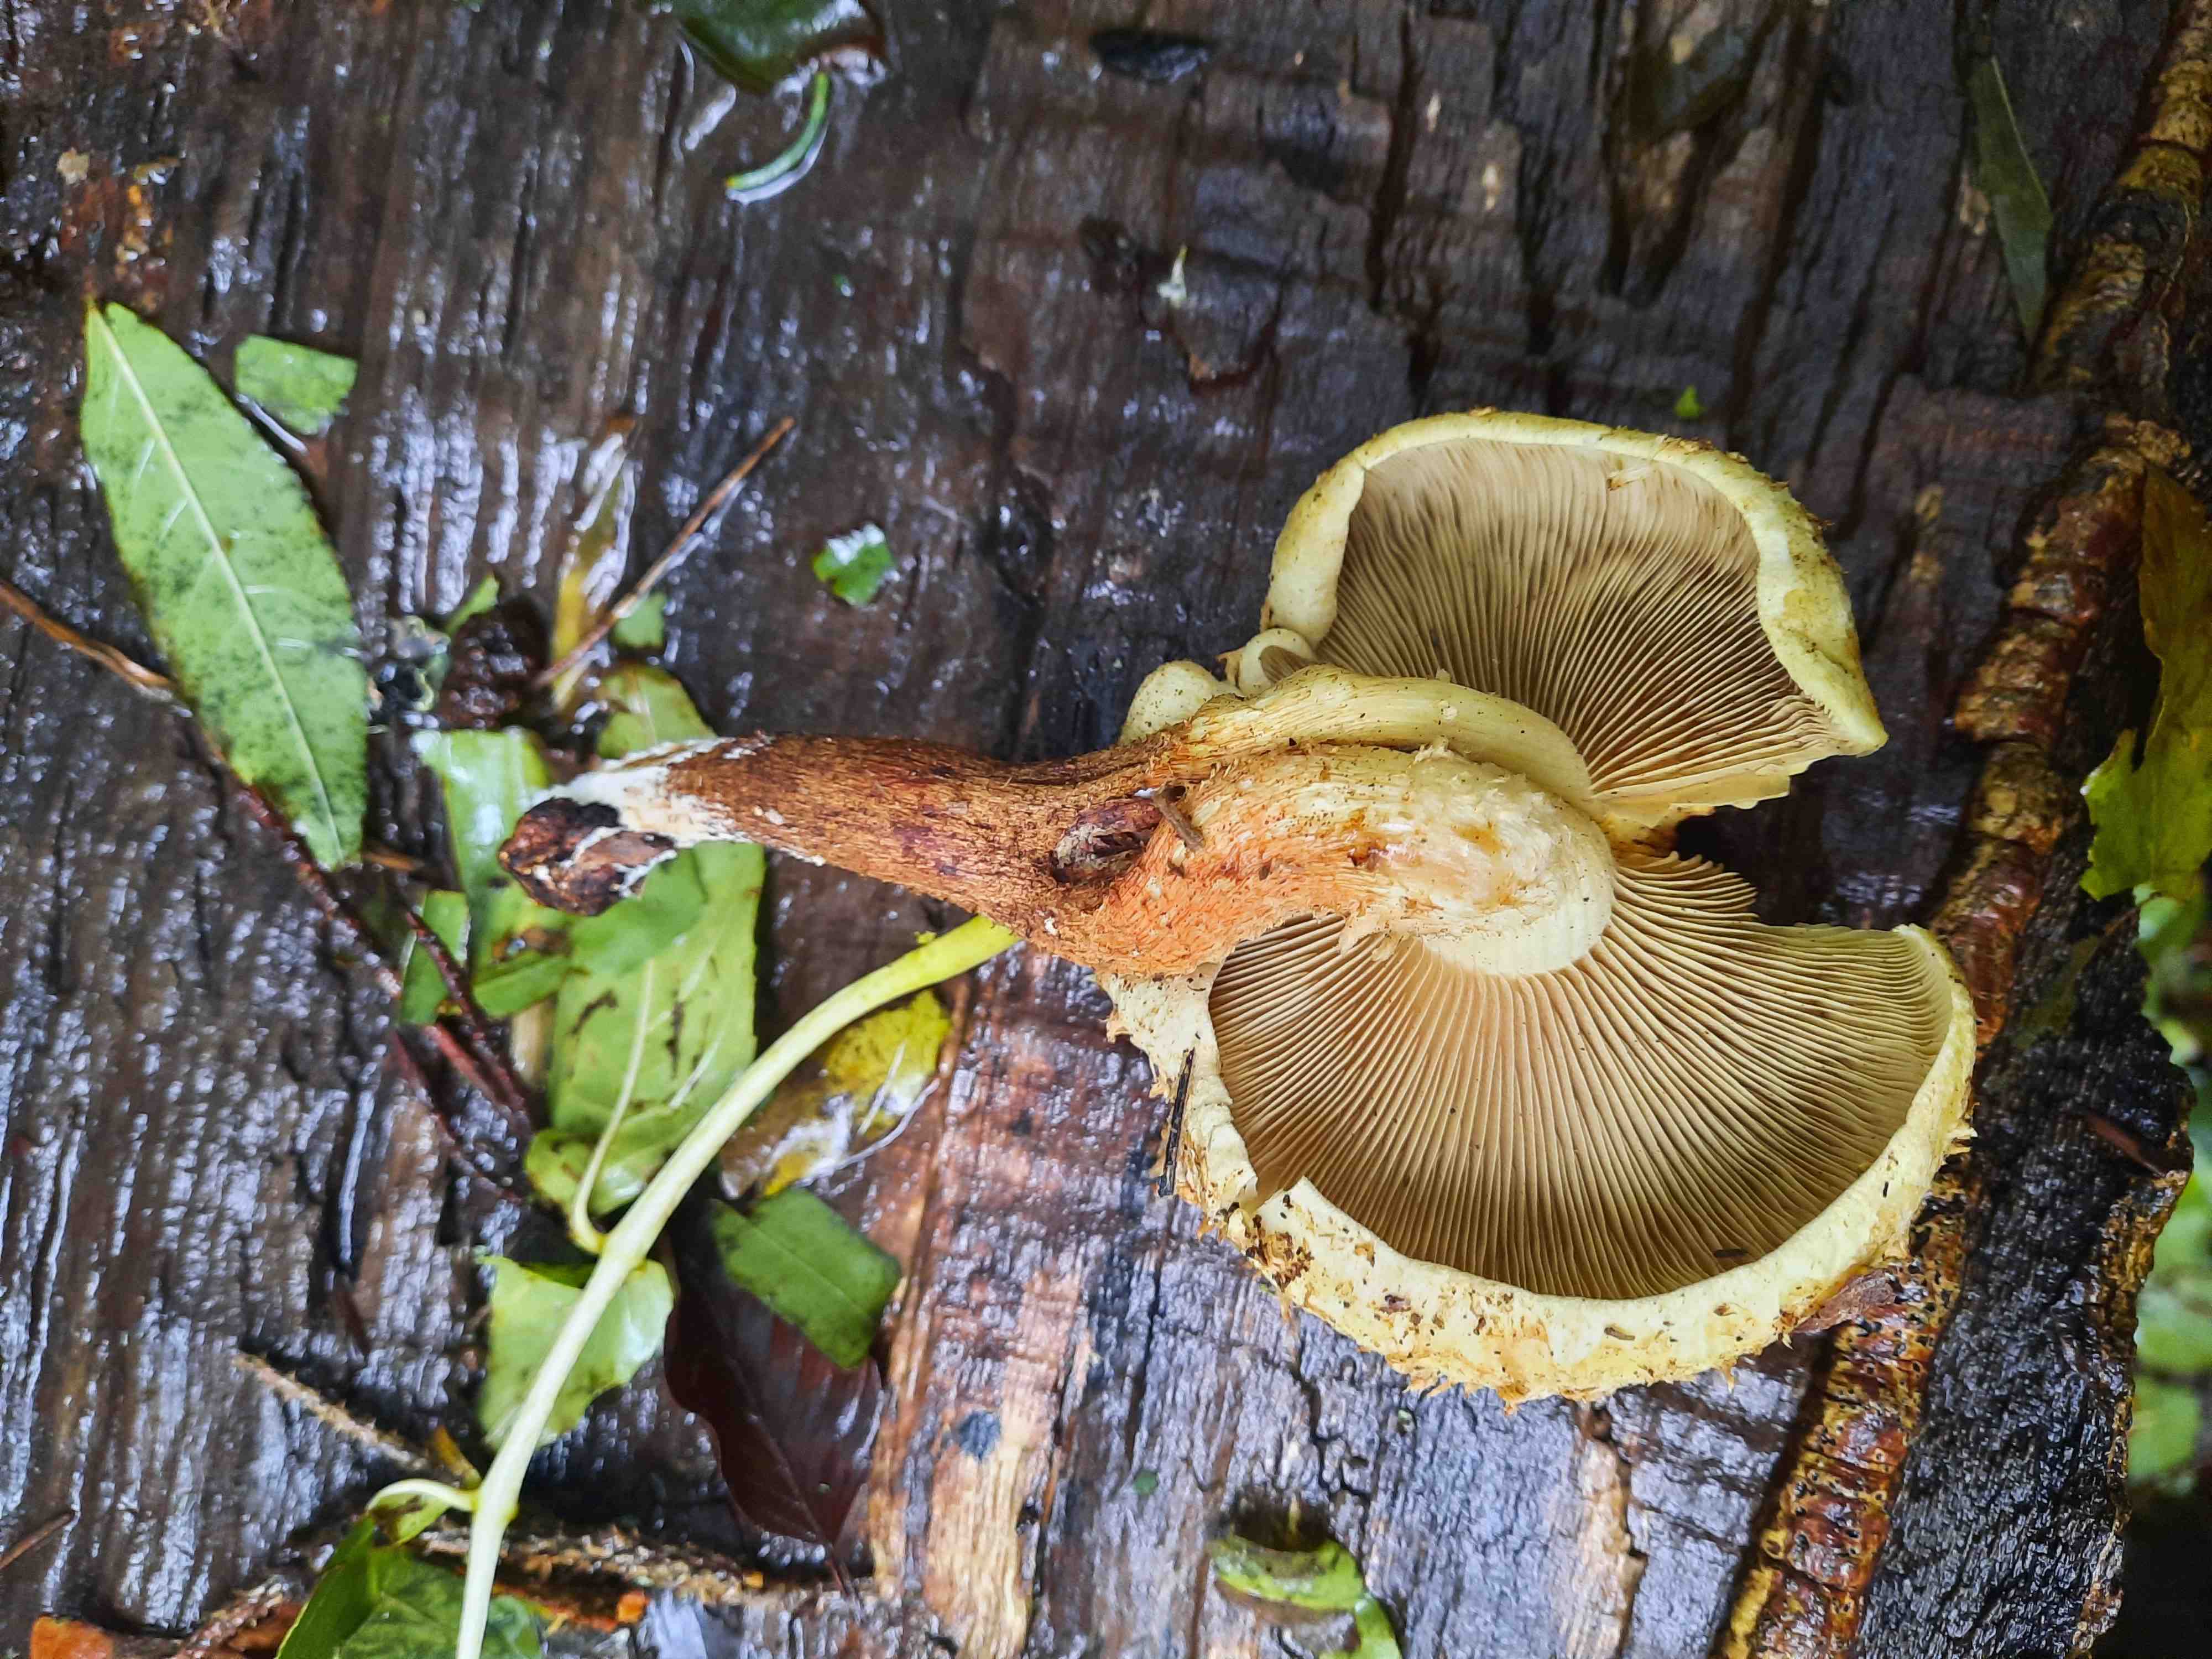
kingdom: Fungi
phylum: Basidiomycota
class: Agaricomycetes
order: Agaricales
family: Strophariaceae
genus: Pholiota
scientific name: Pholiota squarrosa
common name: krumskællet skælhat
